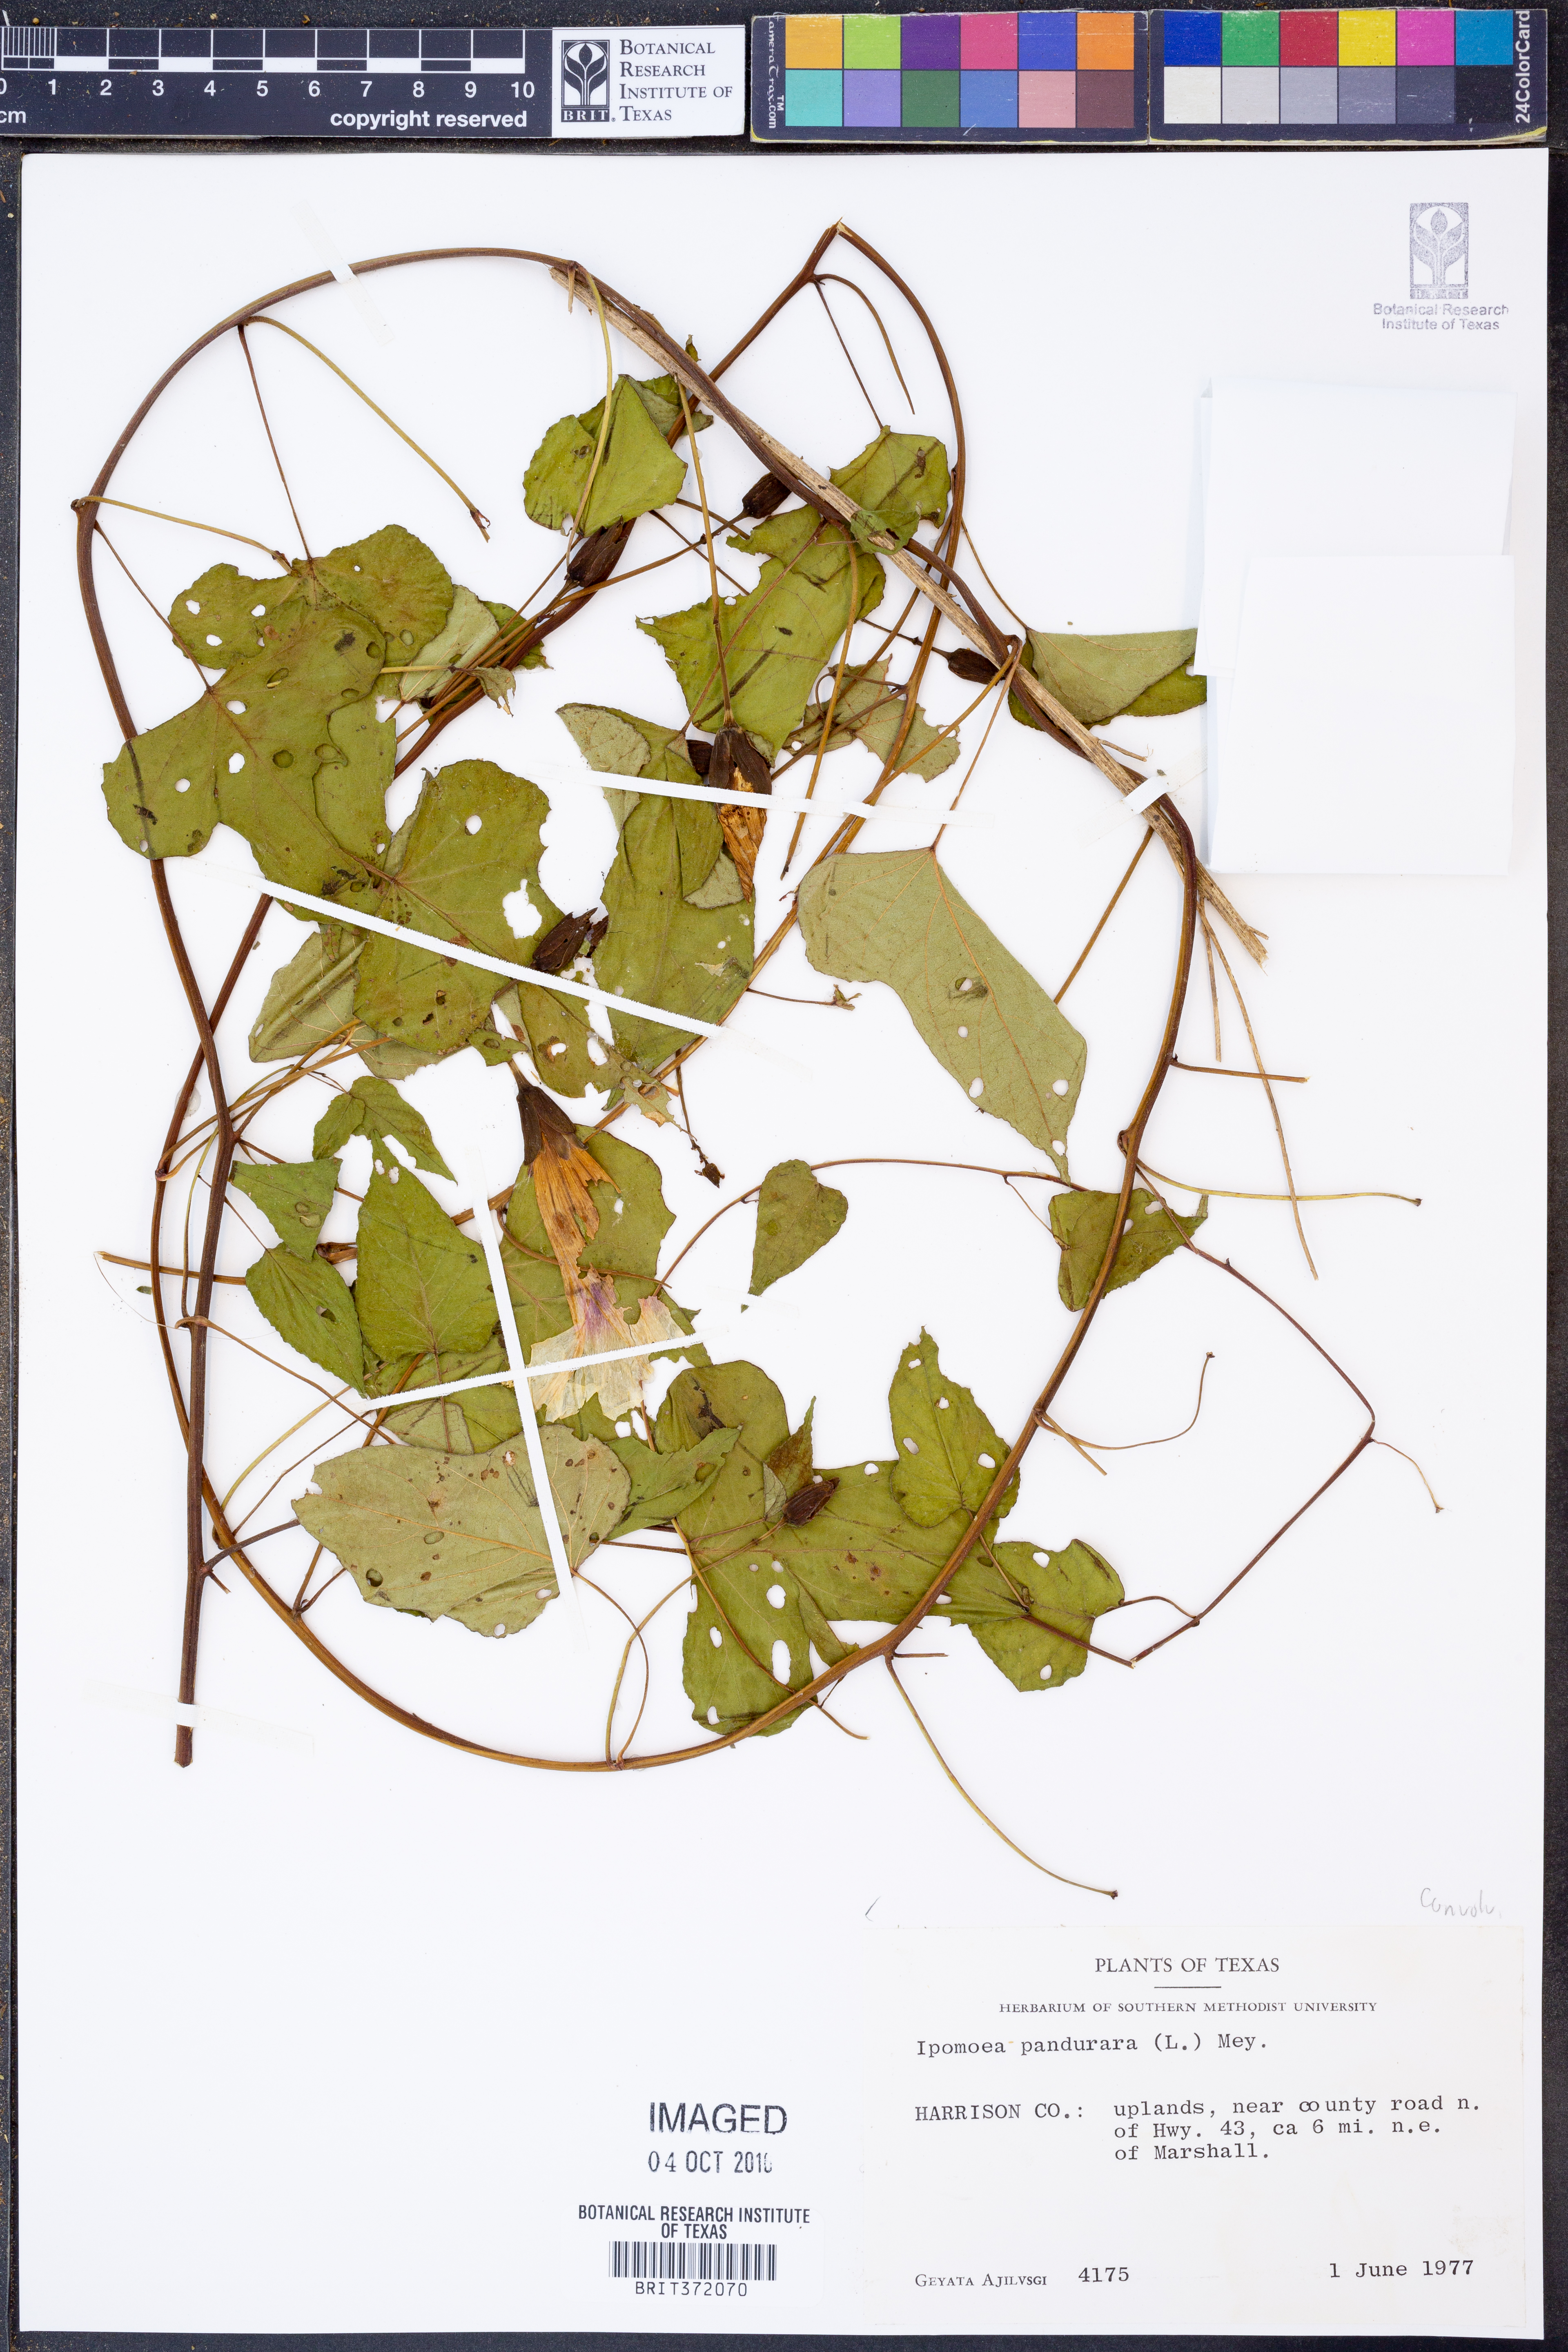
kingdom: Plantae
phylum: Tracheophyta
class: Magnoliopsida
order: Solanales
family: Convolvulaceae
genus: Ipomoea
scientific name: Ipomoea pandurata
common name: Man-of-the-earth
